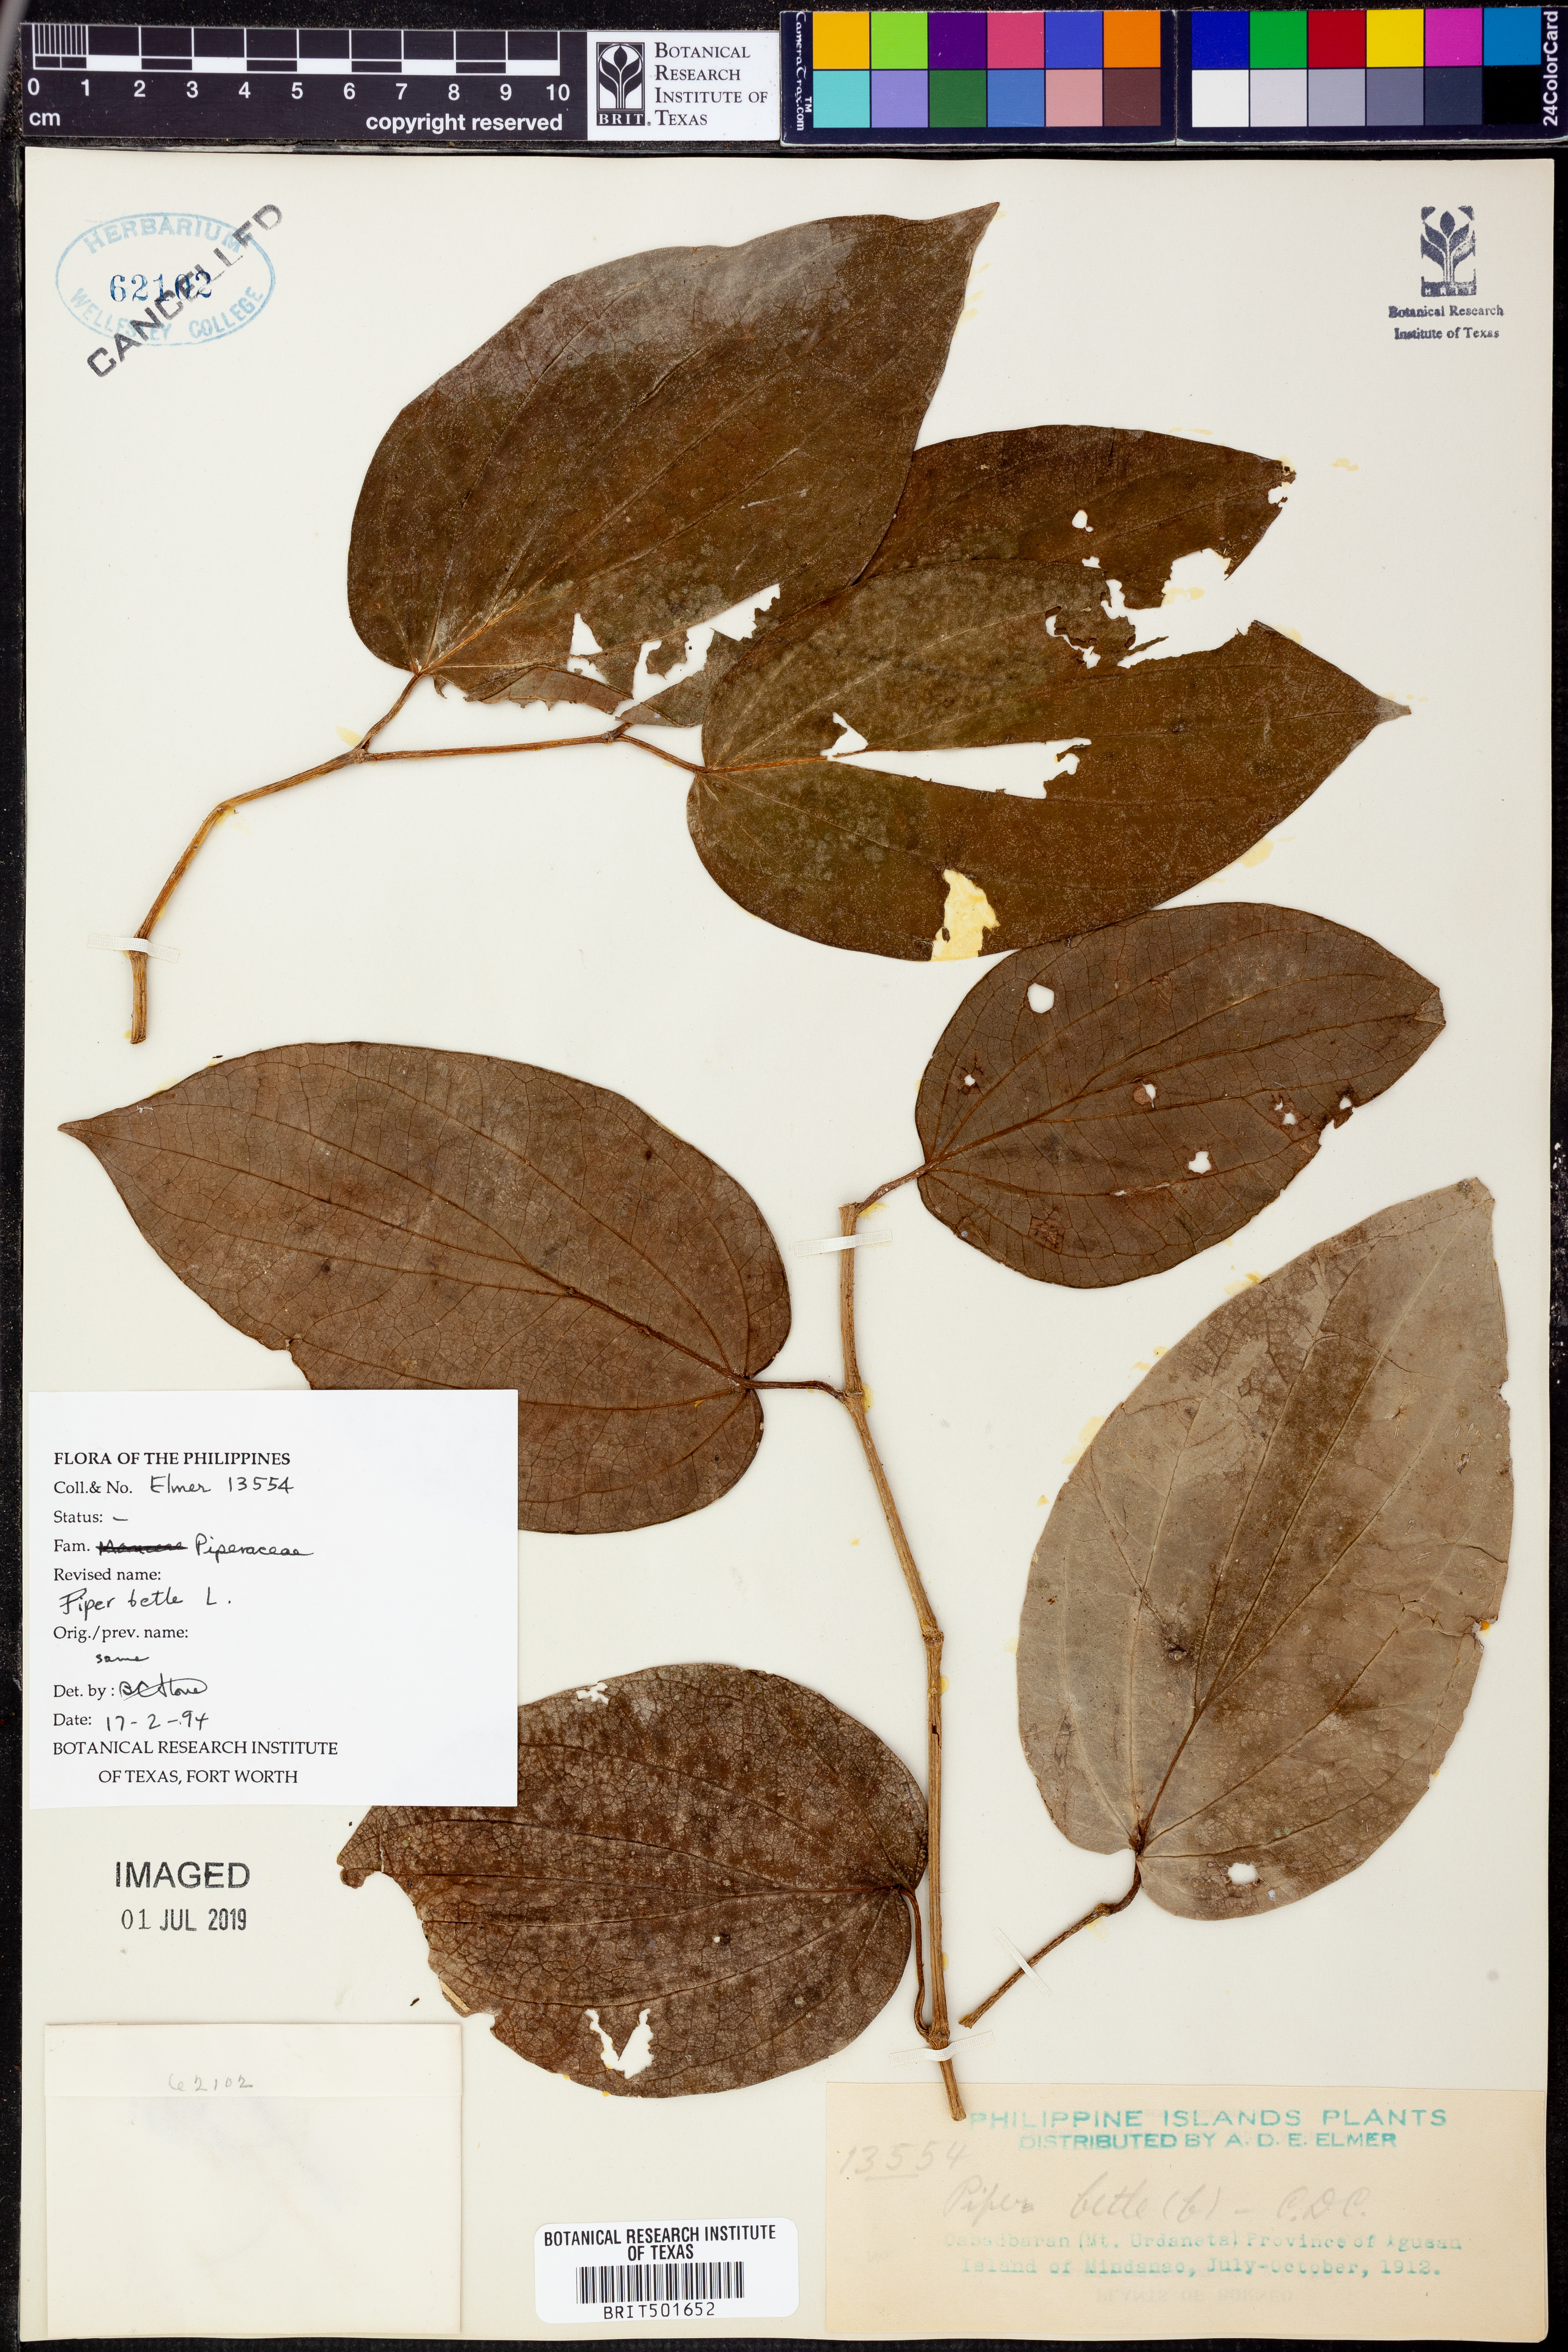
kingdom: Plantae
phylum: Tracheophyta
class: Magnoliopsida
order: Piperales
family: Piperaceae
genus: Piper
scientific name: Piper betle
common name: Betel pepper
